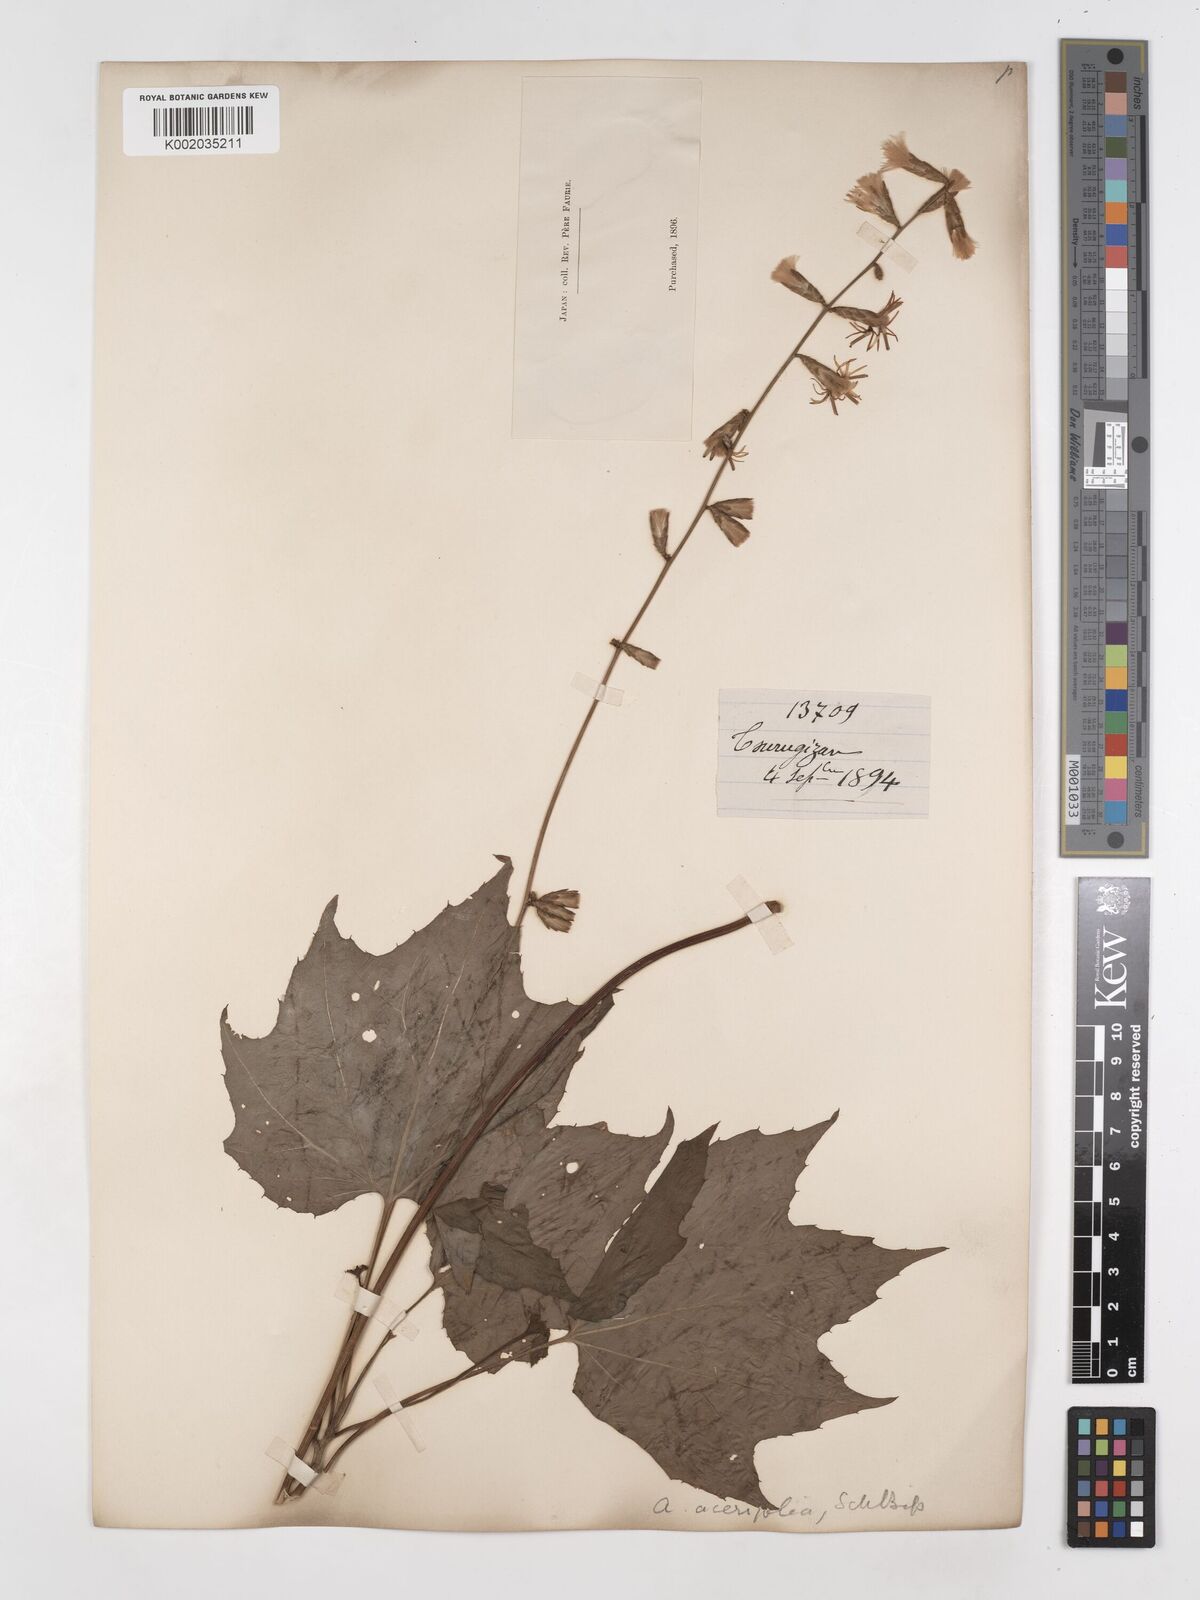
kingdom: Plantae
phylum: Tracheophyta
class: Magnoliopsida
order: Asterales
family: Asteraceae
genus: Ainsliaea
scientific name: Ainsliaea acerifolia
